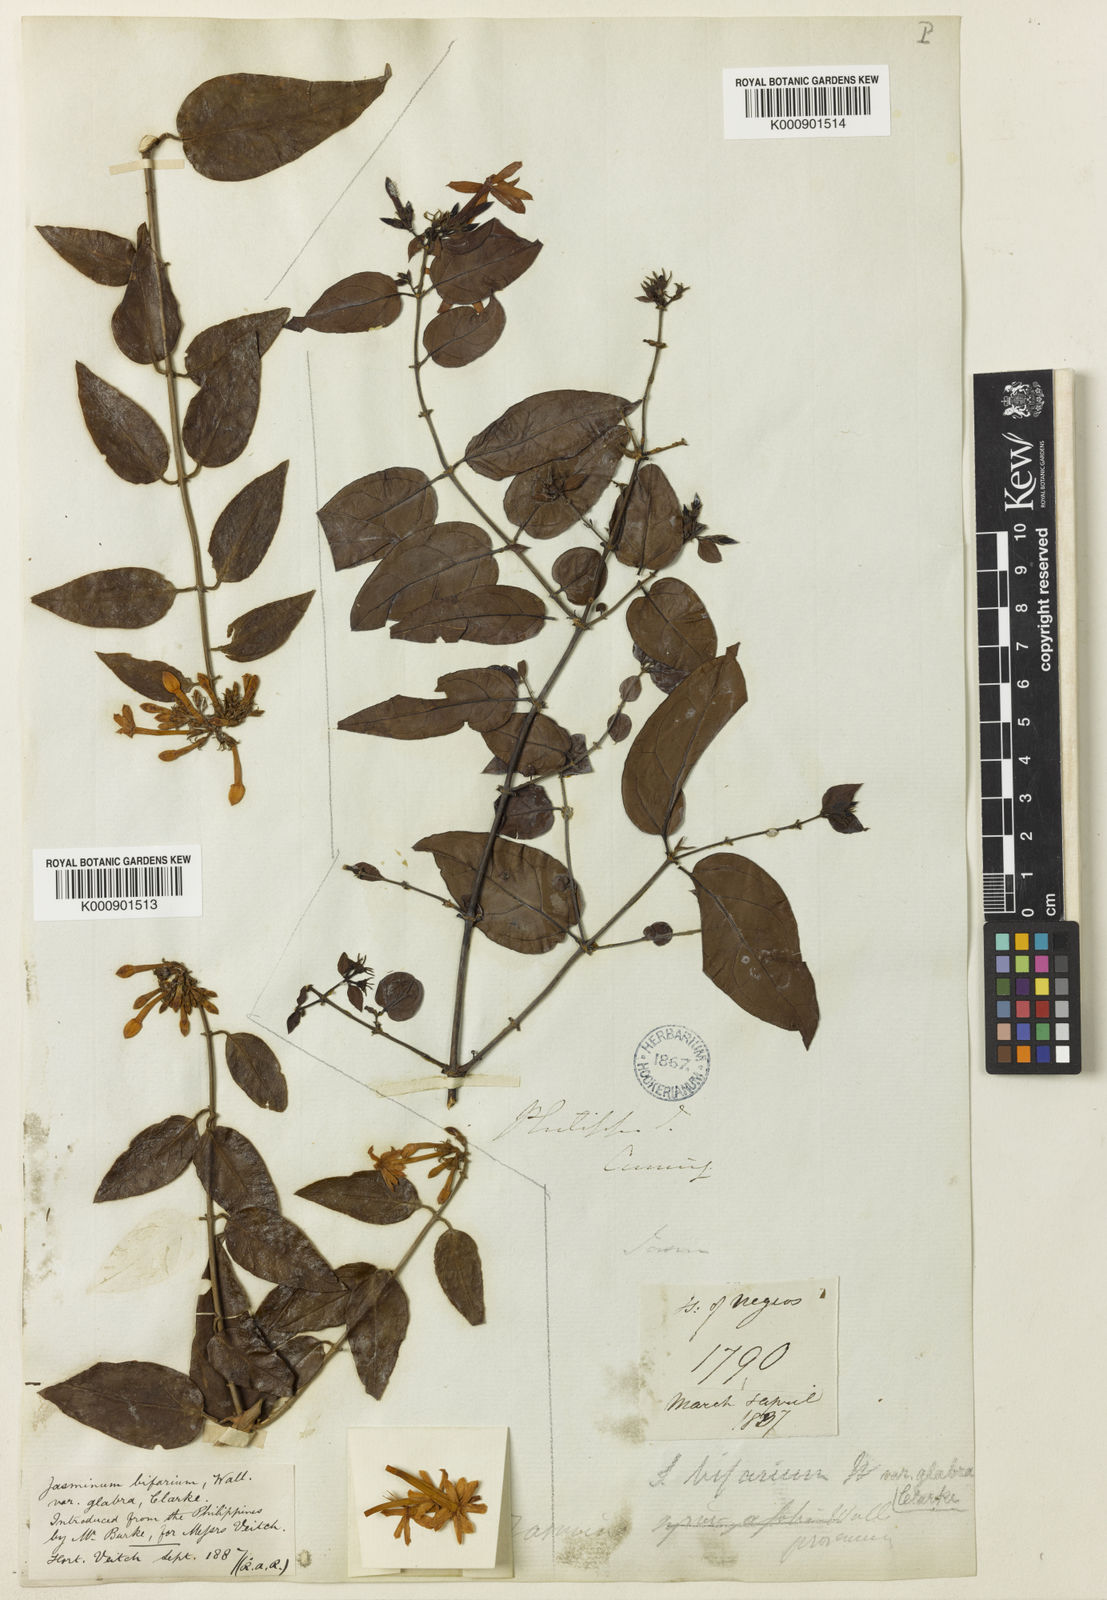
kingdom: Plantae
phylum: Tracheophyta
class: Magnoliopsida
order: Lamiales
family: Oleaceae
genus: Jasminum
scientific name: Jasminum
